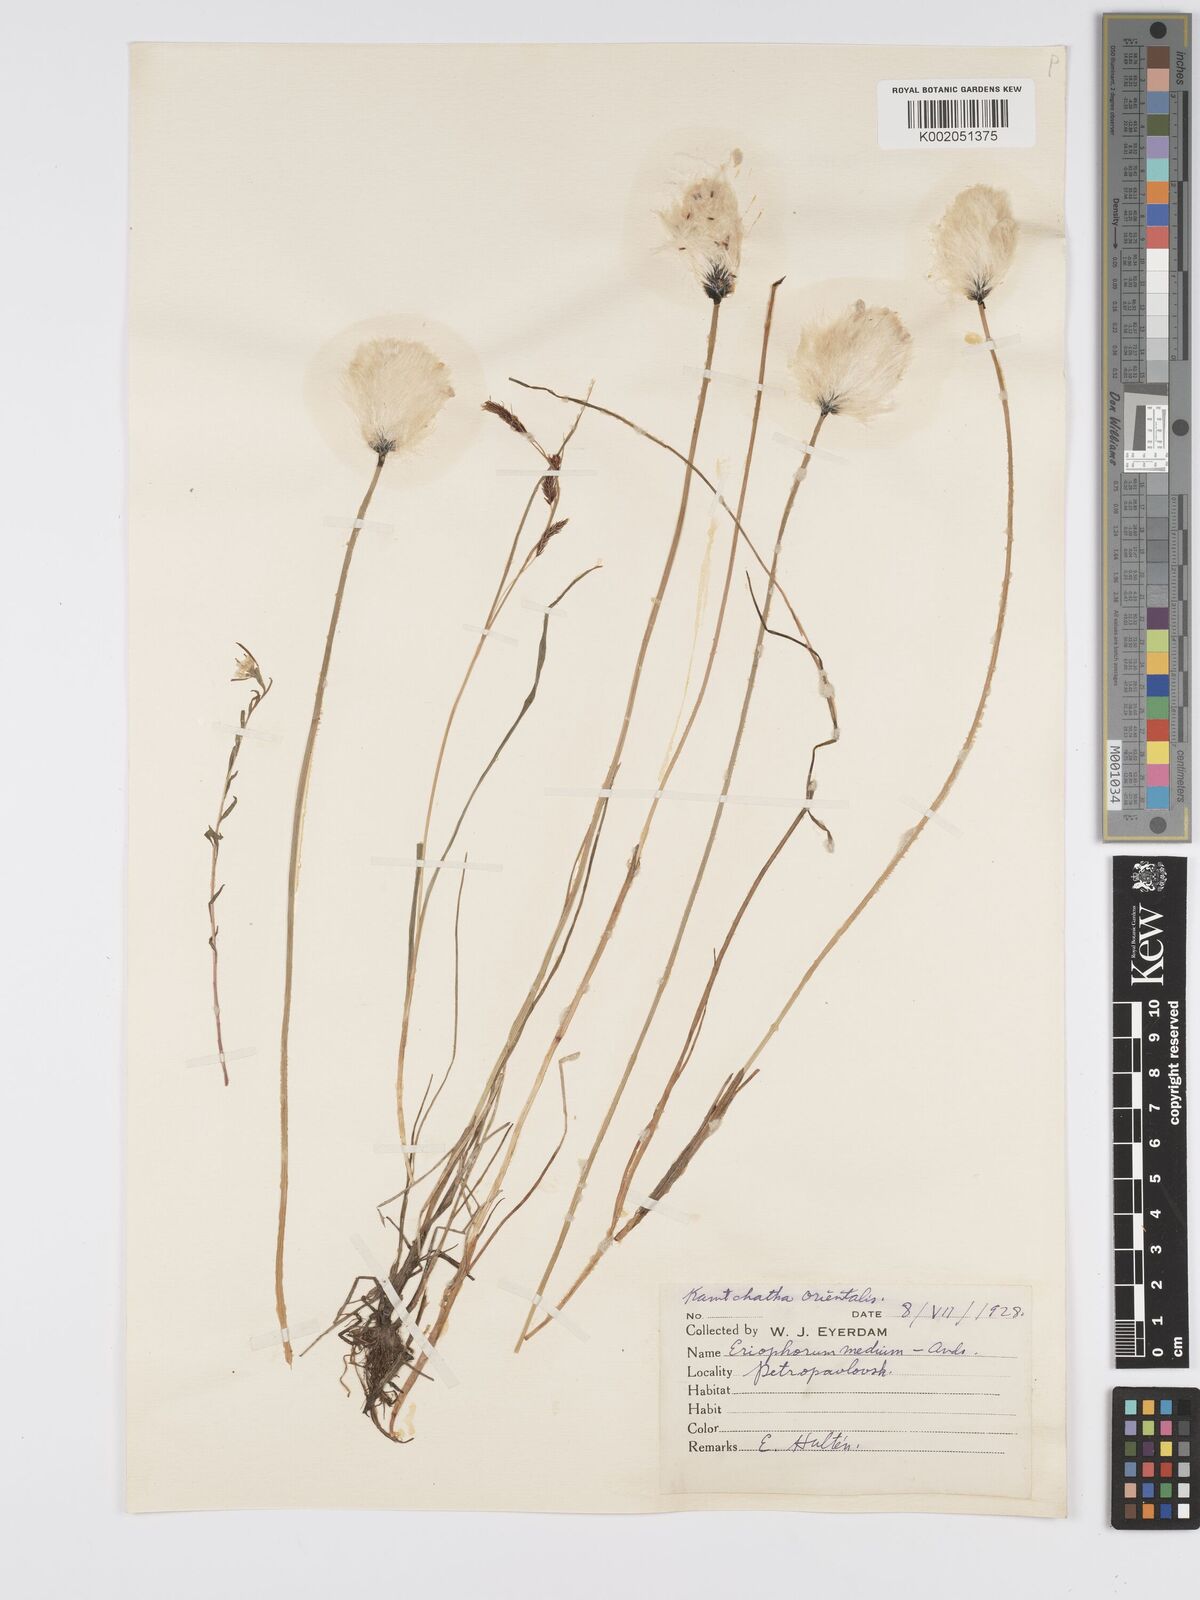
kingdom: Plantae
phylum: Tracheophyta
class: Liliopsida
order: Poales
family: Cyperaceae
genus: Eriophorum
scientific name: Eriophorum medium
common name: Intermediate cottongrass
